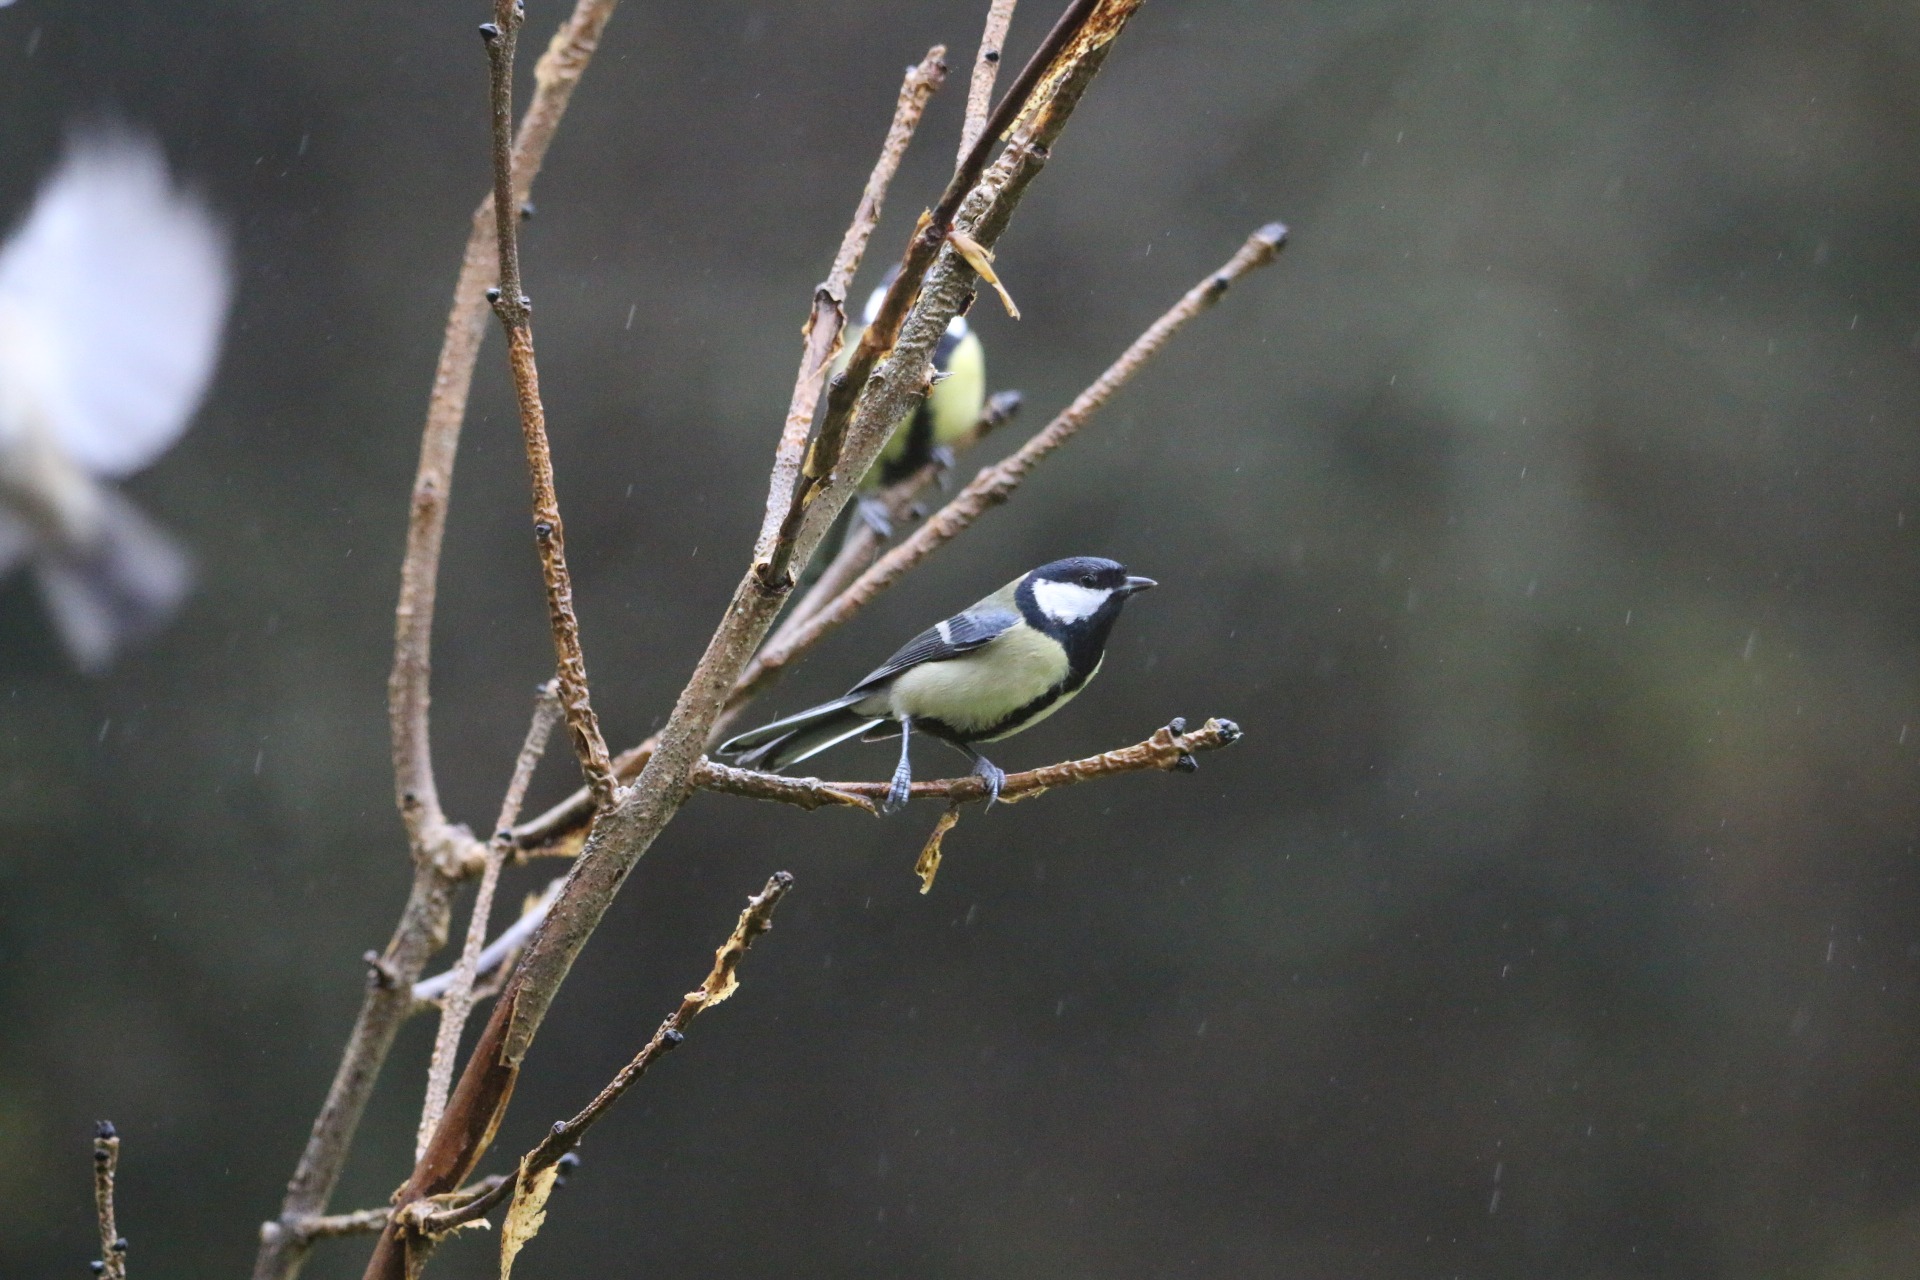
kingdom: Animalia
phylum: Chordata
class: Aves
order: Passeriformes
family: Paridae
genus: Parus
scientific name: Parus major
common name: Musvit
